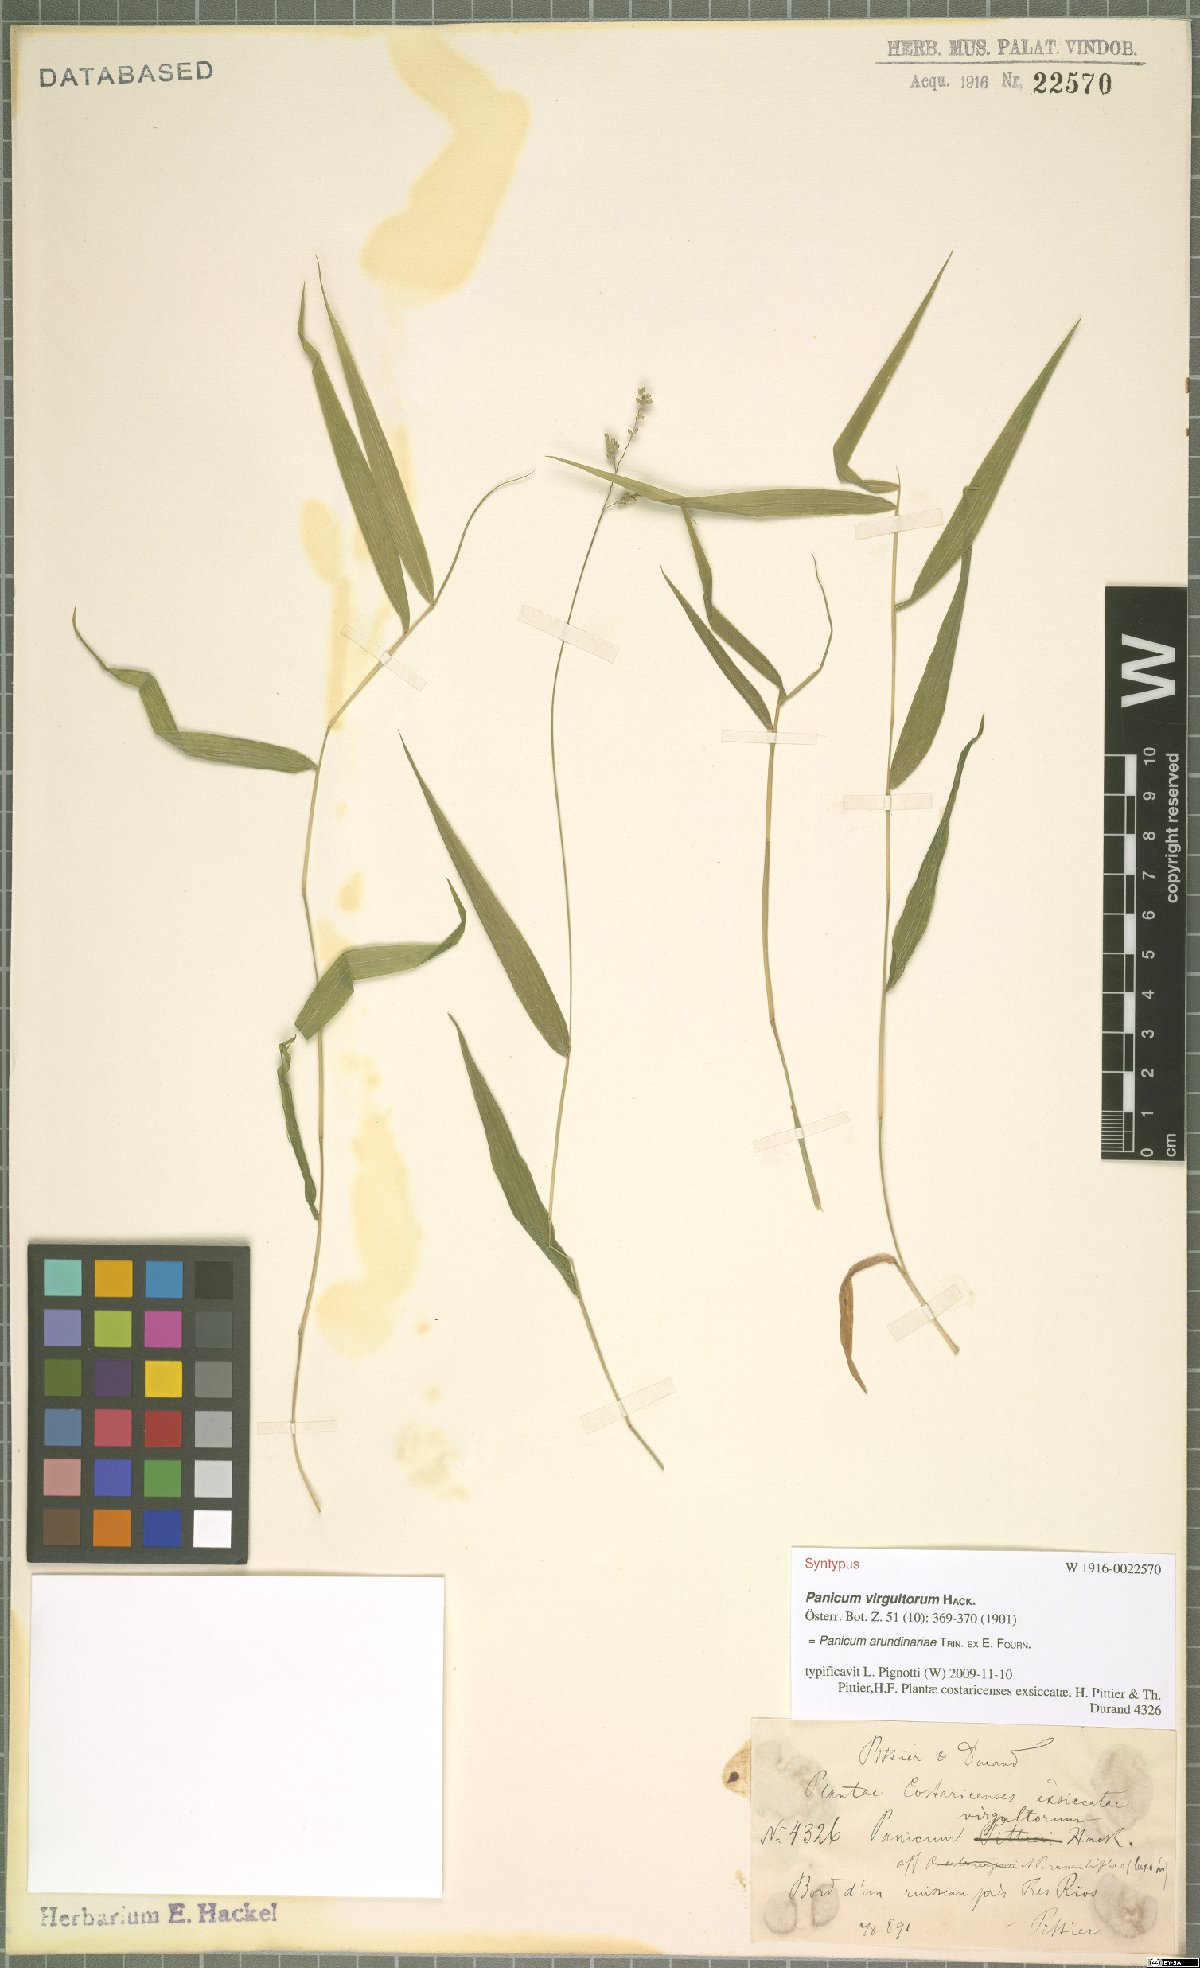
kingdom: Plantae
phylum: Tracheophyta
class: Liliopsida
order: Poales
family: Poaceae
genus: Morronea
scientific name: Morronea arundinariae
